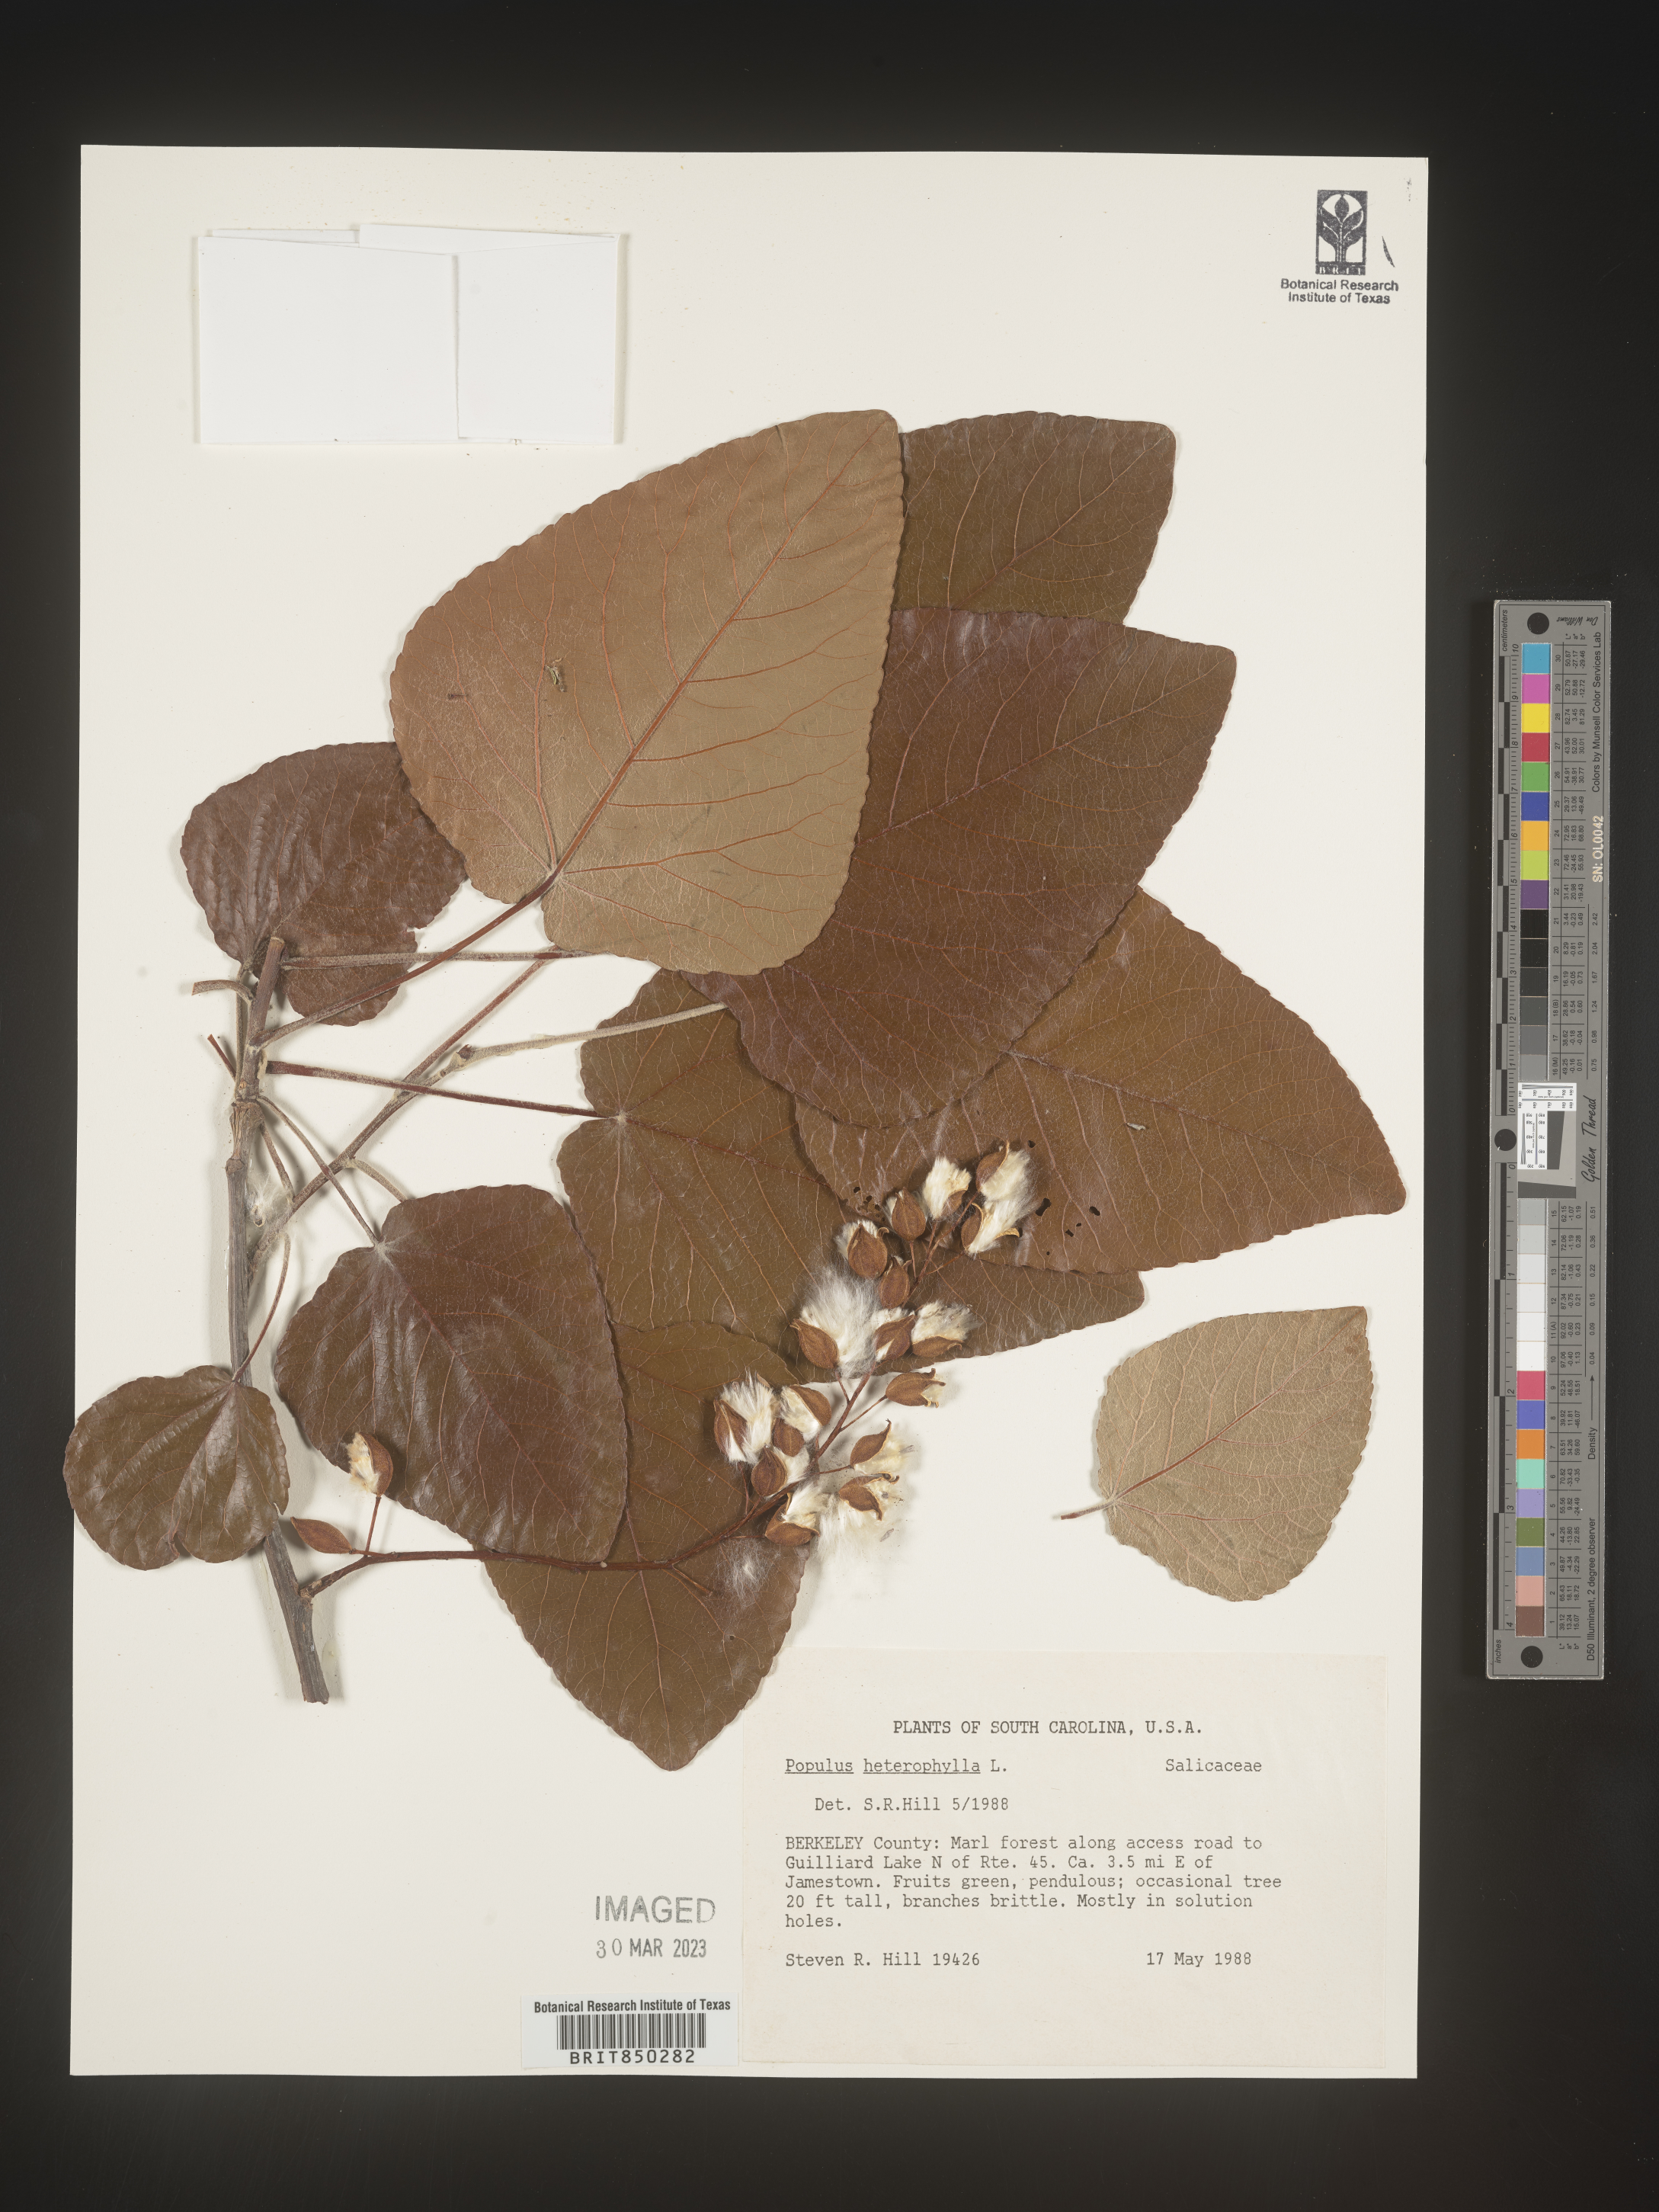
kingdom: Plantae
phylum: Tracheophyta
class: Magnoliopsida
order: Malpighiales
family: Salicaceae
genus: Populus
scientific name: Populus heterophylla
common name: Downy poplar
